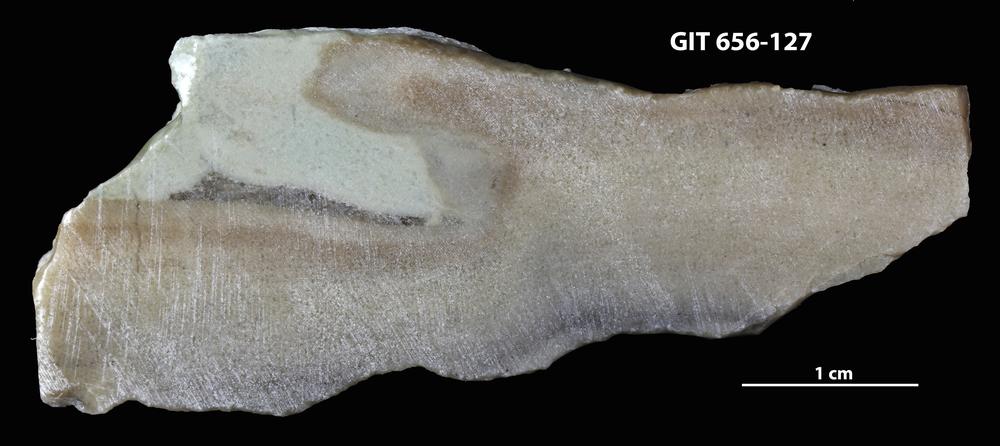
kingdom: Animalia
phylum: Porifera
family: Syringostromellidae
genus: Syringostromella
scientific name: Syringostromella
